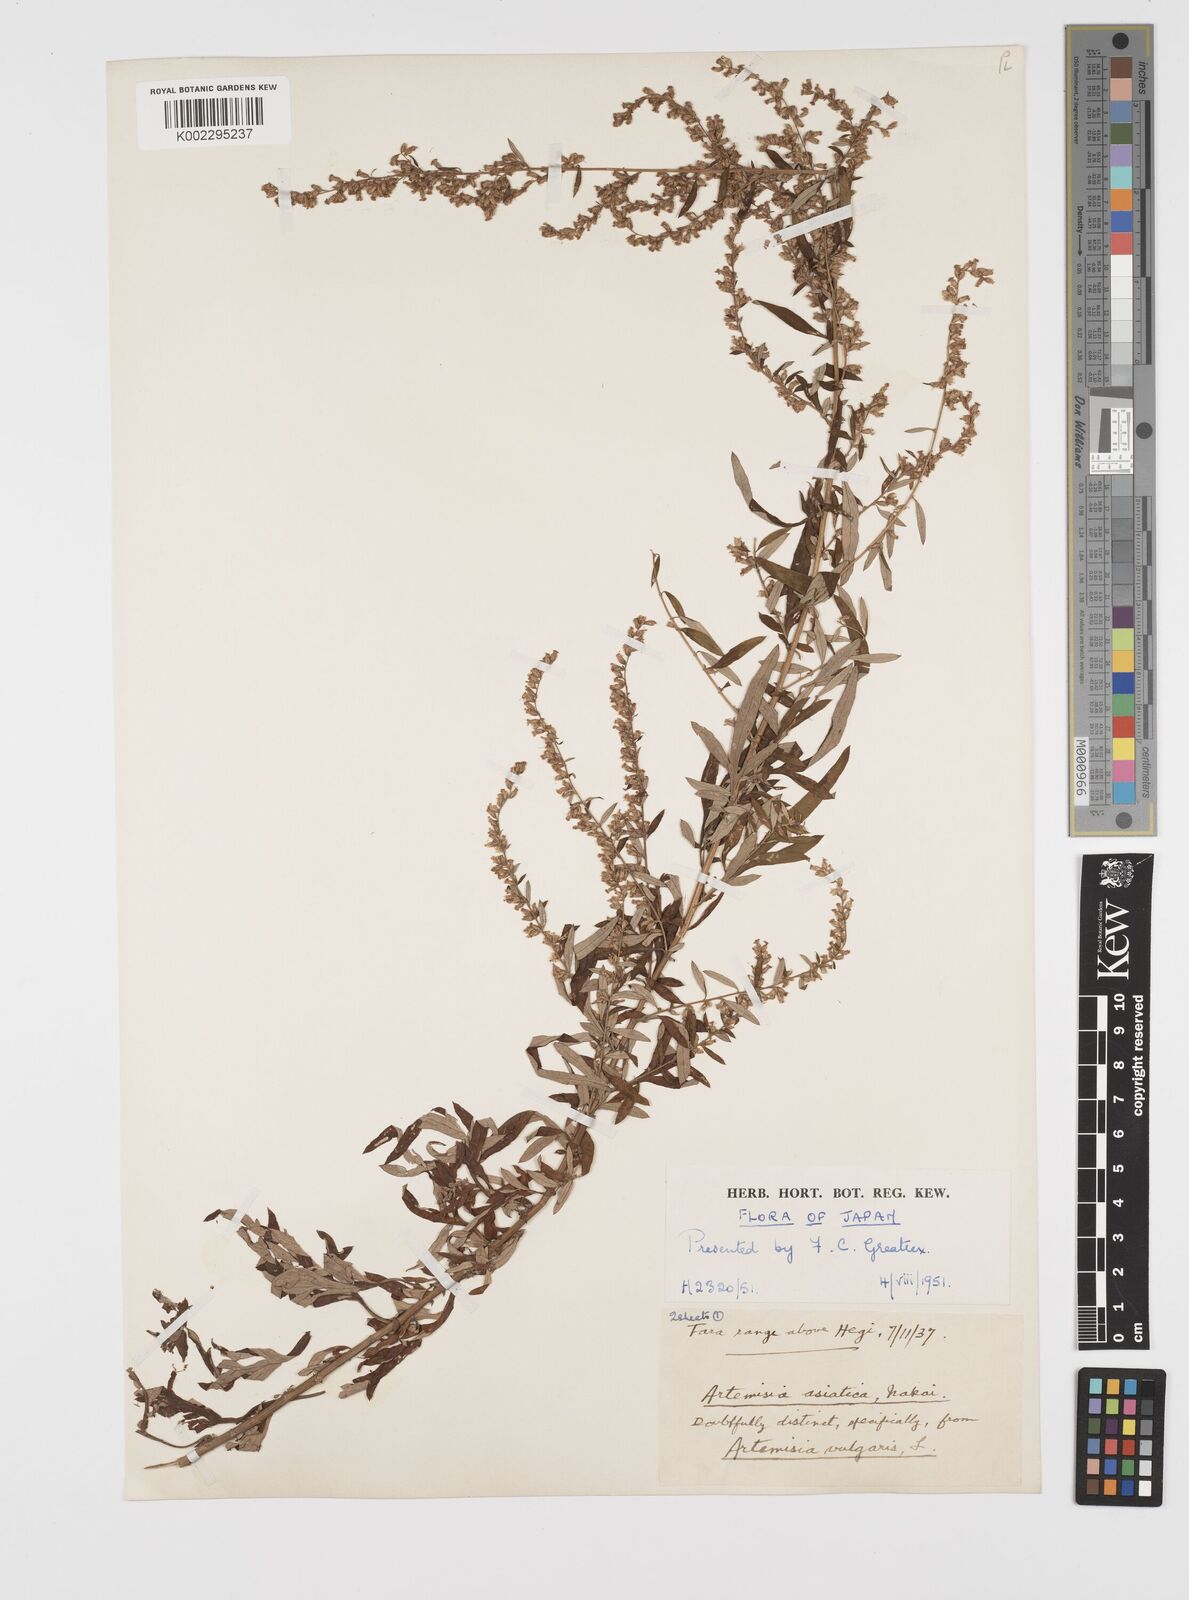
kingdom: Plantae
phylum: Tracheophyta
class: Magnoliopsida
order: Asterales
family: Asteraceae
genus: Artemisia
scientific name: Artemisia indica
